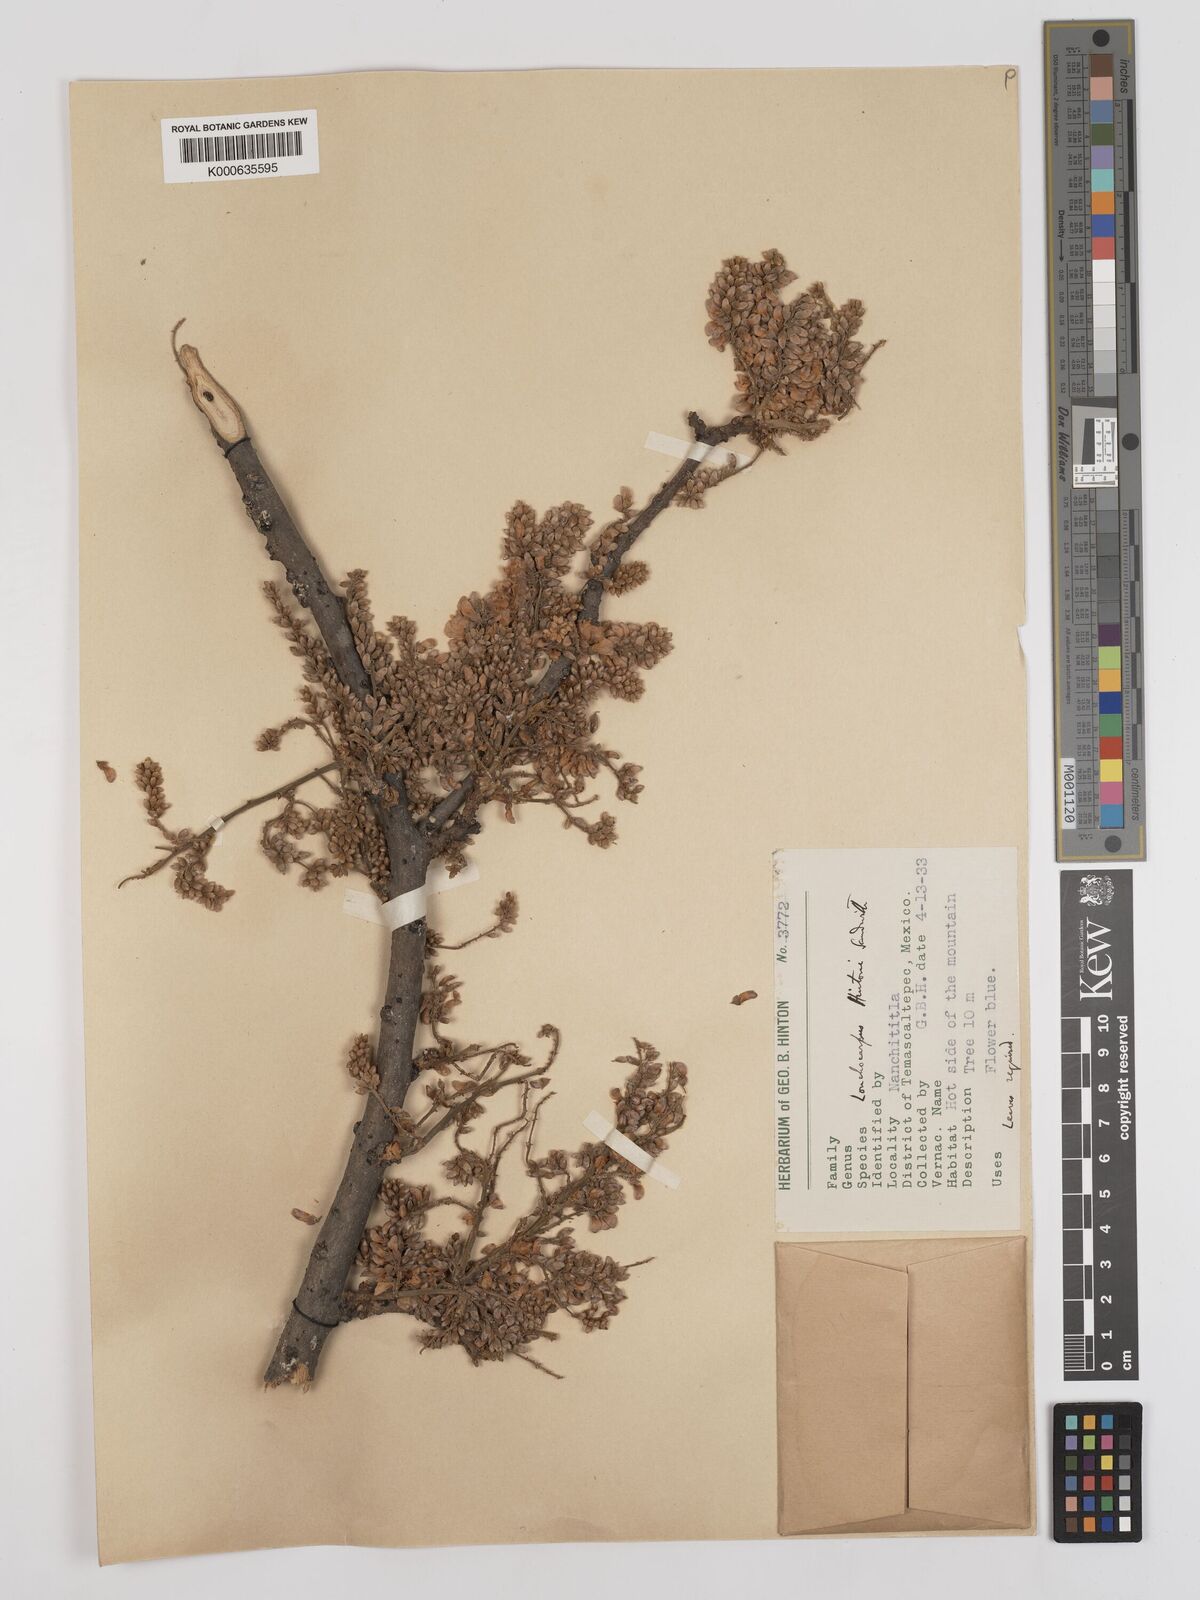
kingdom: Plantae
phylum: Tracheophyta
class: Magnoliopsida
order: Fabales
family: Fabaceae
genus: Lonchocarpus
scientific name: Lonchocarpus hintonii
